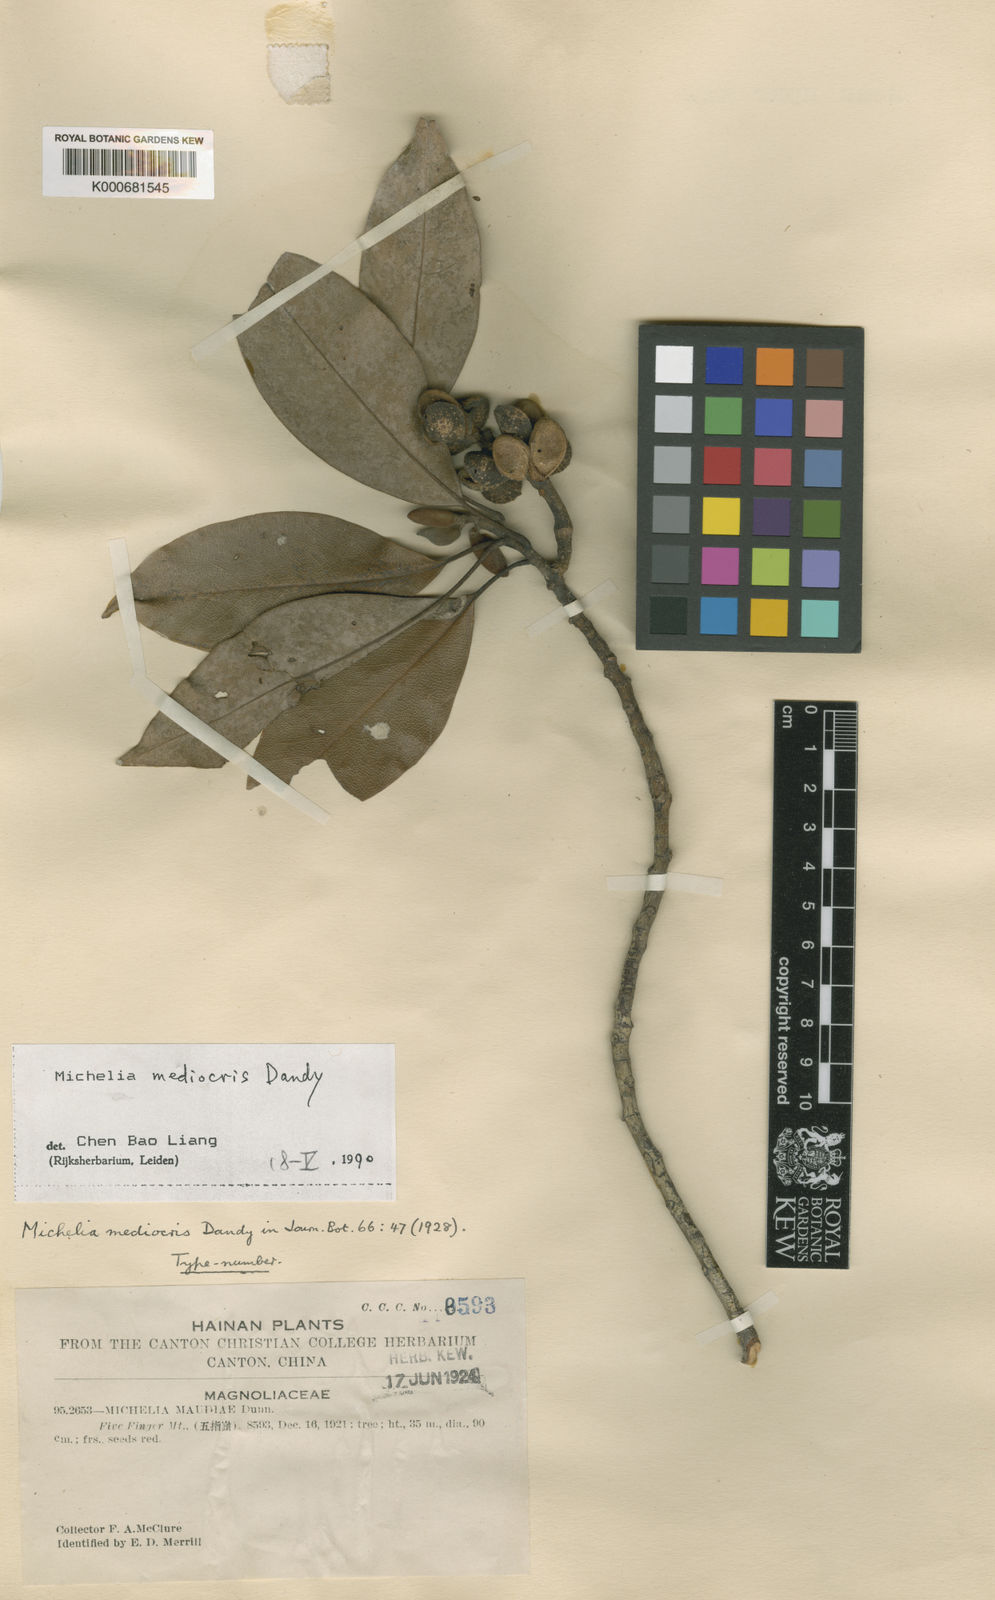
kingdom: Plantae
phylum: Tracheophyta
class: Magnoliopsida
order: Magnoliales
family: Magnoliaceae
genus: Magnolia
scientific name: Magnolia mediocris
